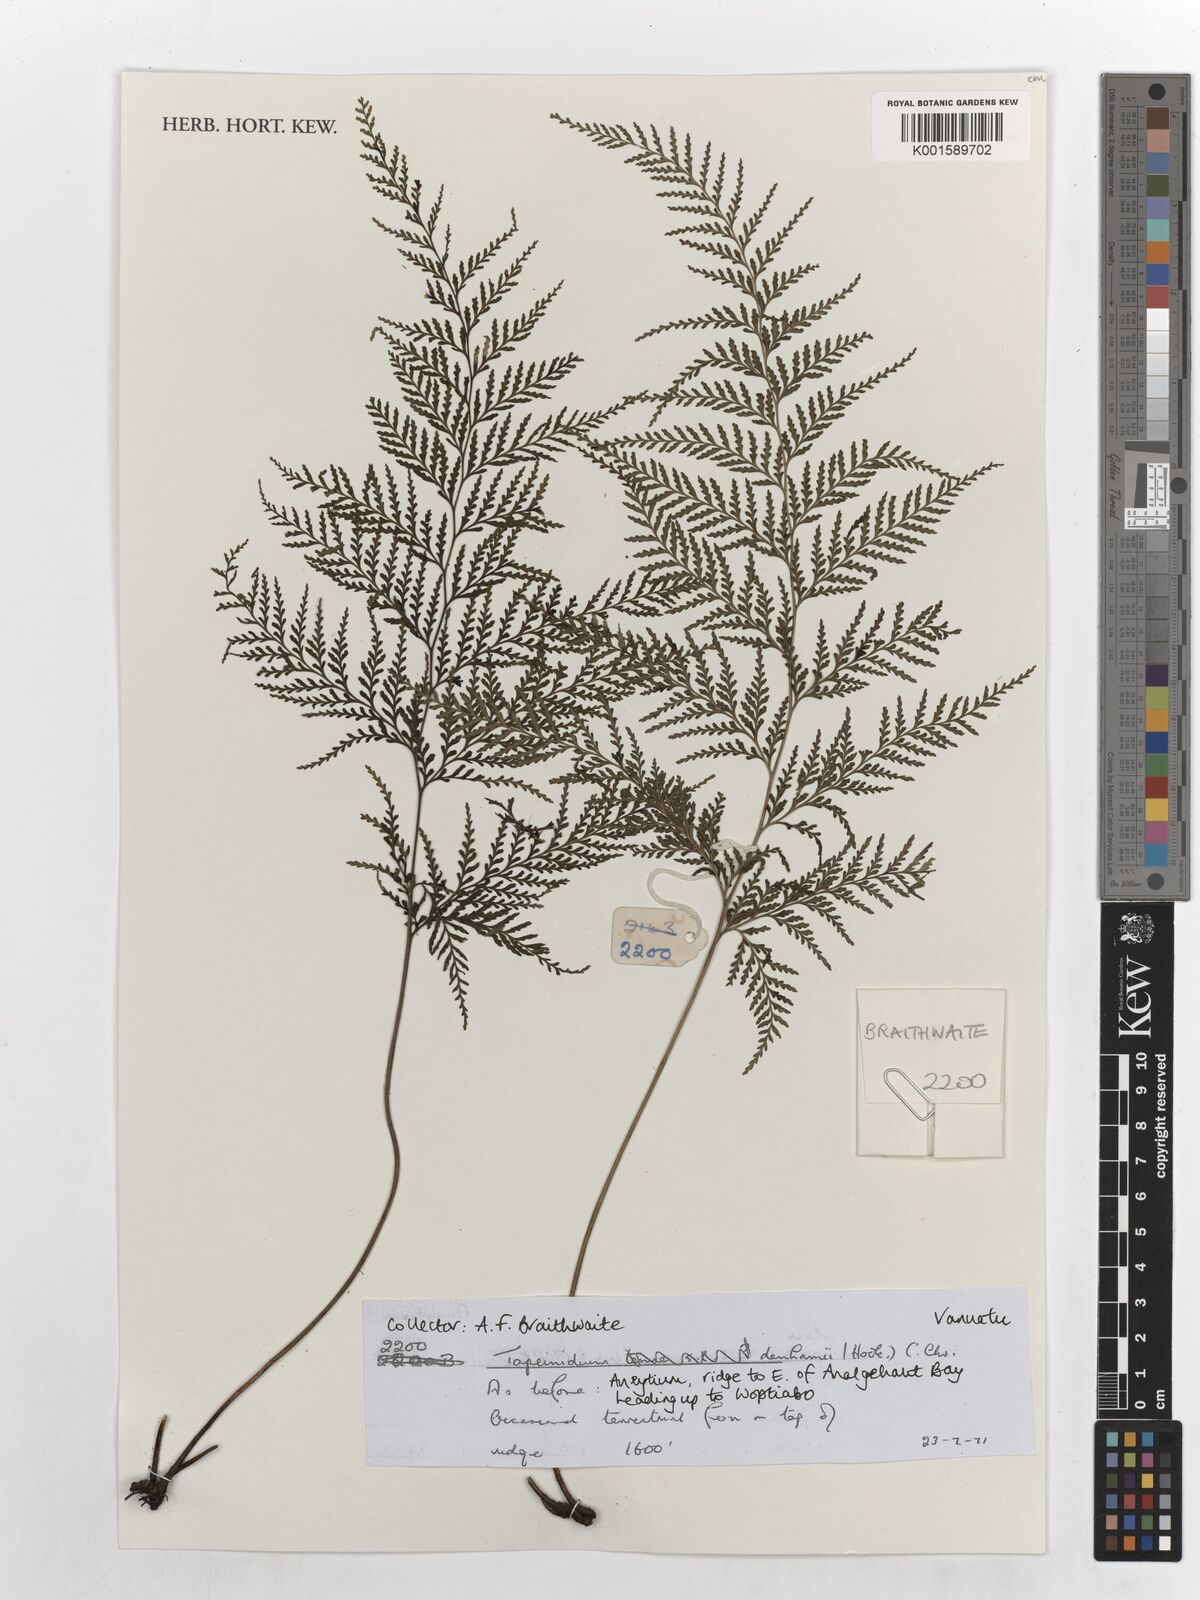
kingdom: Plantae
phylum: Tracheophyta
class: Polypodiopsida
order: Polypodiales
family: Lindsaeaceae
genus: Tapeinidium
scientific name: Tapeinidium denhamii
